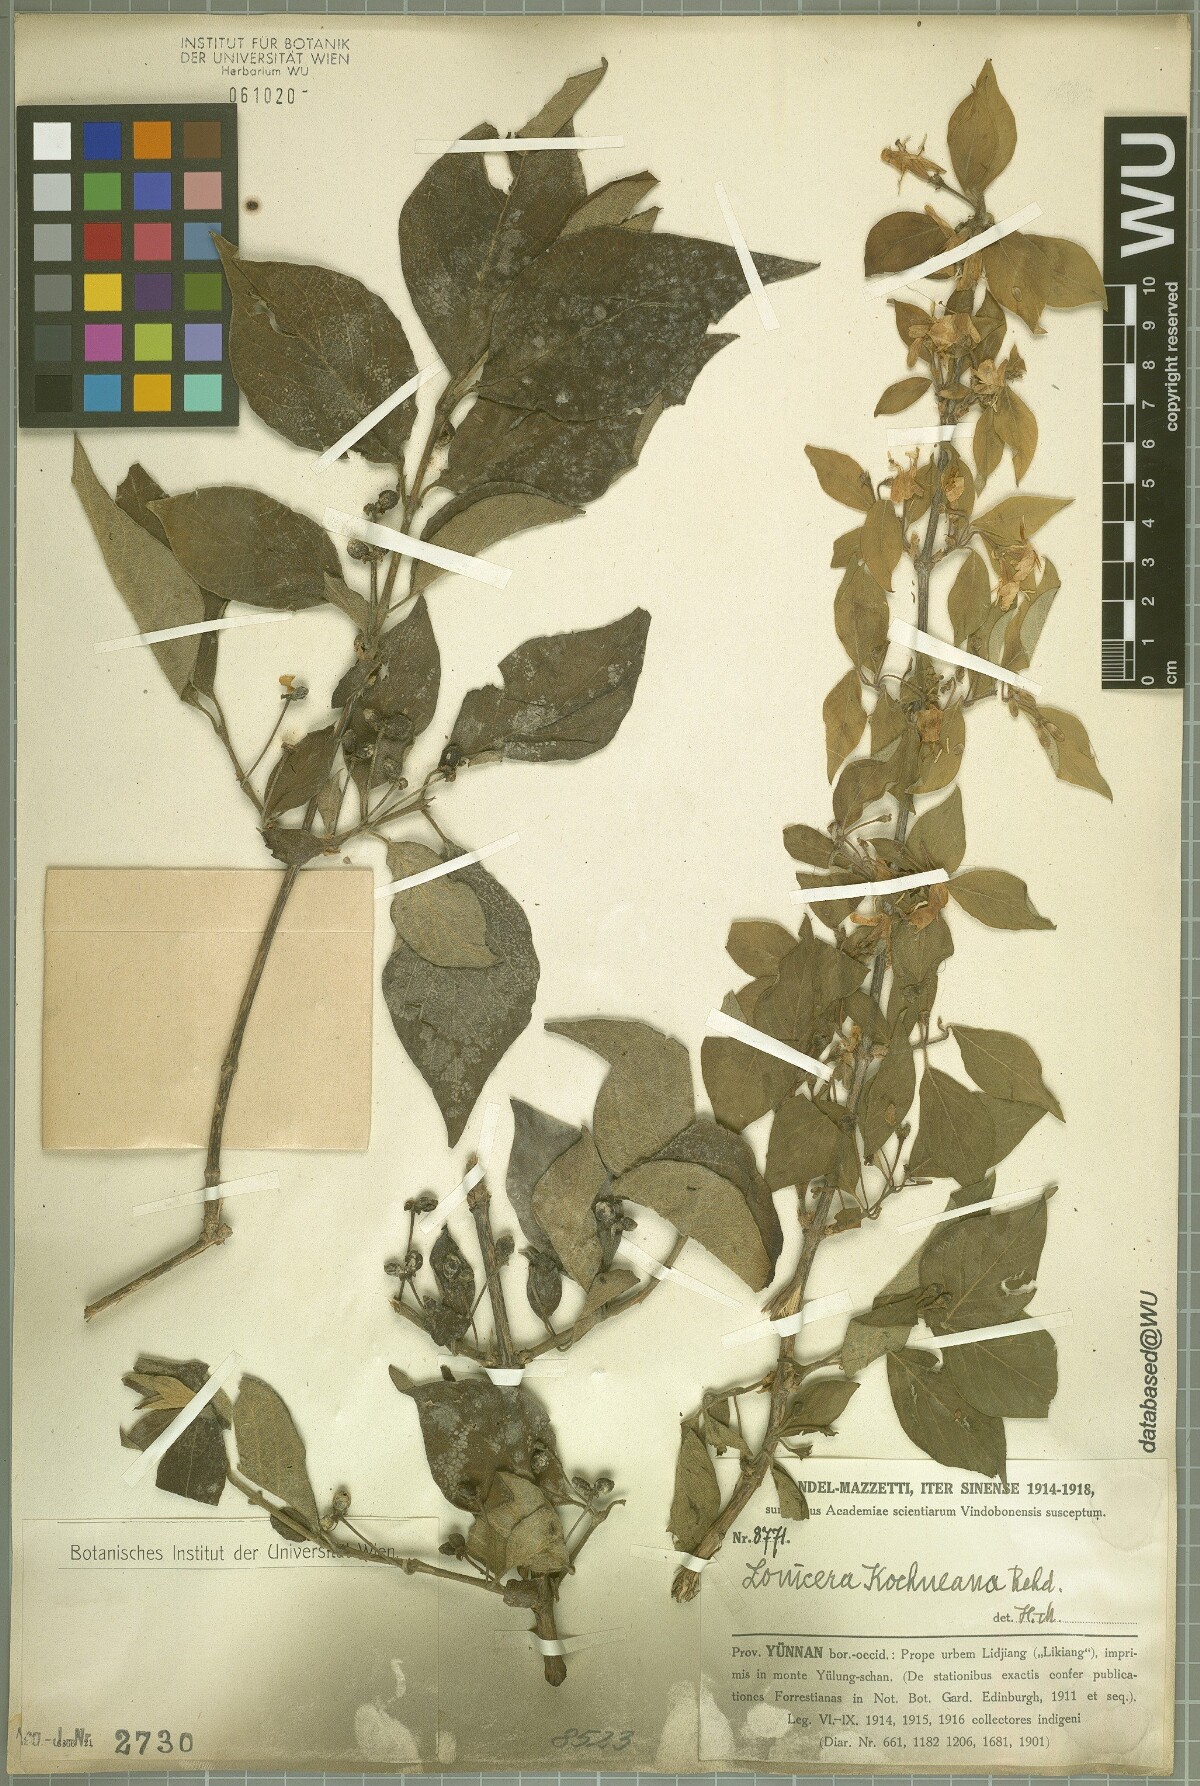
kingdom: Plantae
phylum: Tracheophyta
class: Magnoliopsida
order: Dipsacales
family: Caprifoliaceae
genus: Lonicera
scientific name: Lonicera chrysantha
